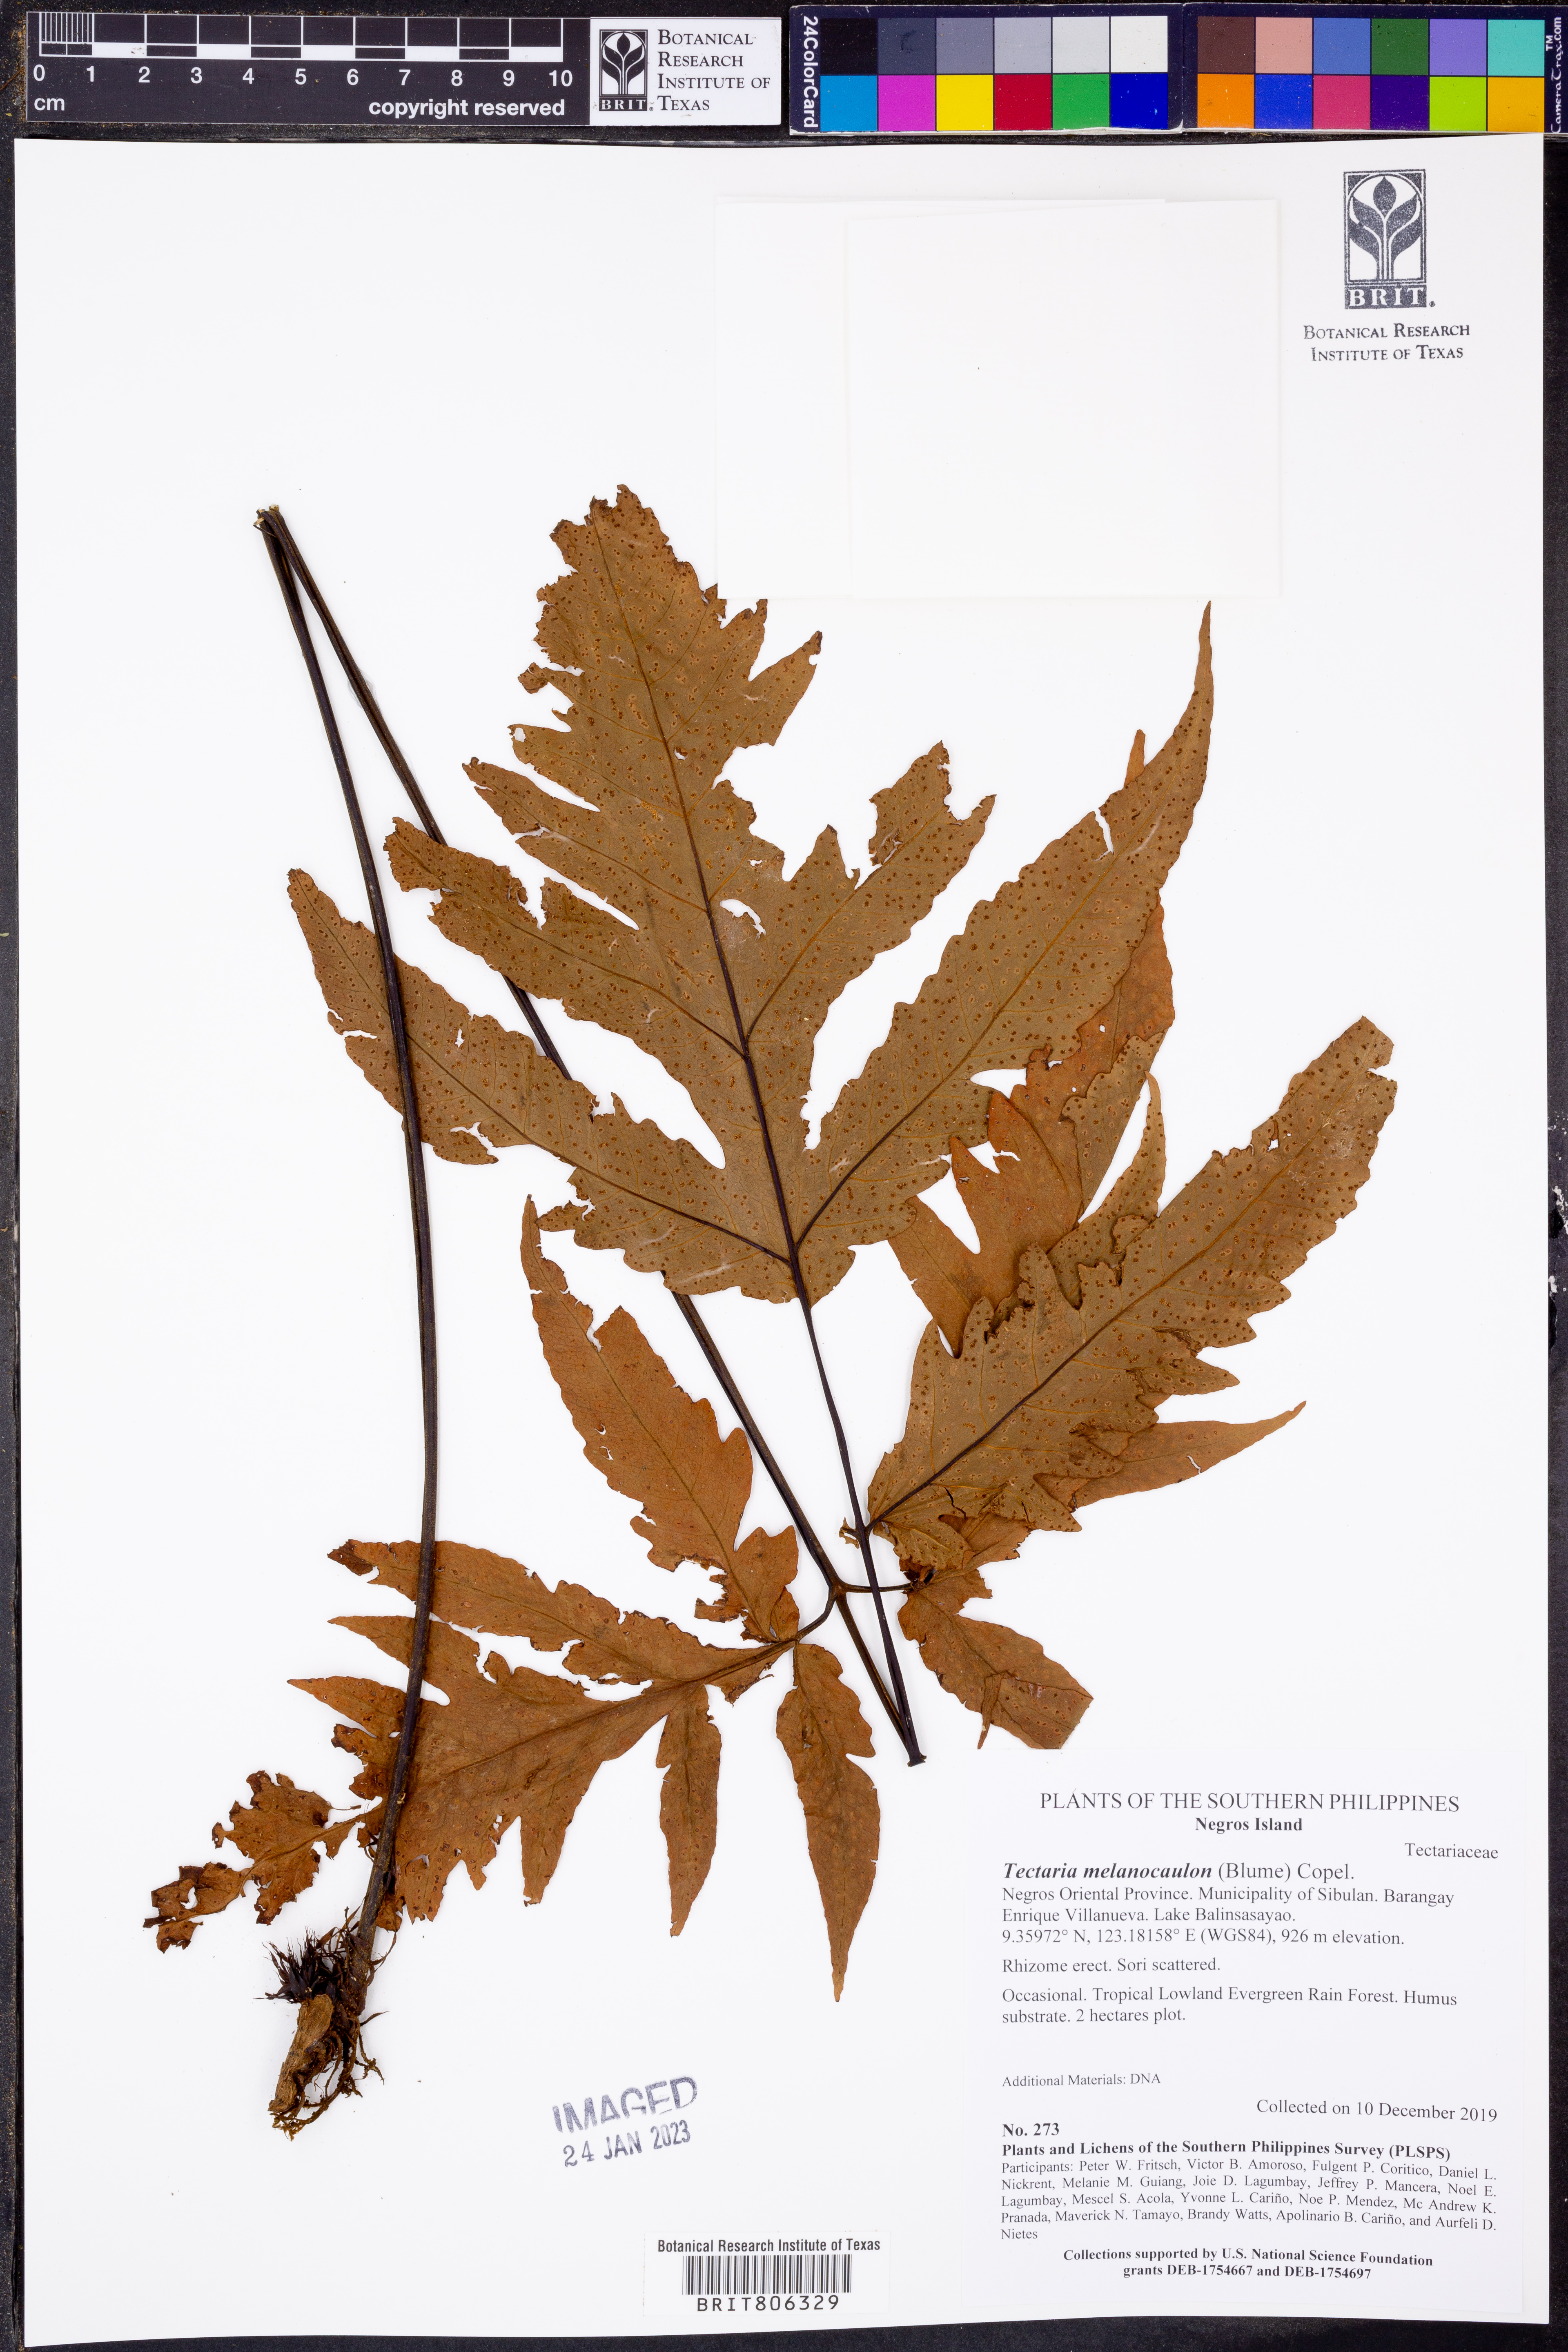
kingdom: Plantae
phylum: Tracheophyta
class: Polypodiopsida
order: Polypodiales
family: Tectariaceae
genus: Tectaria
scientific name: Tectaria melanocaulos
